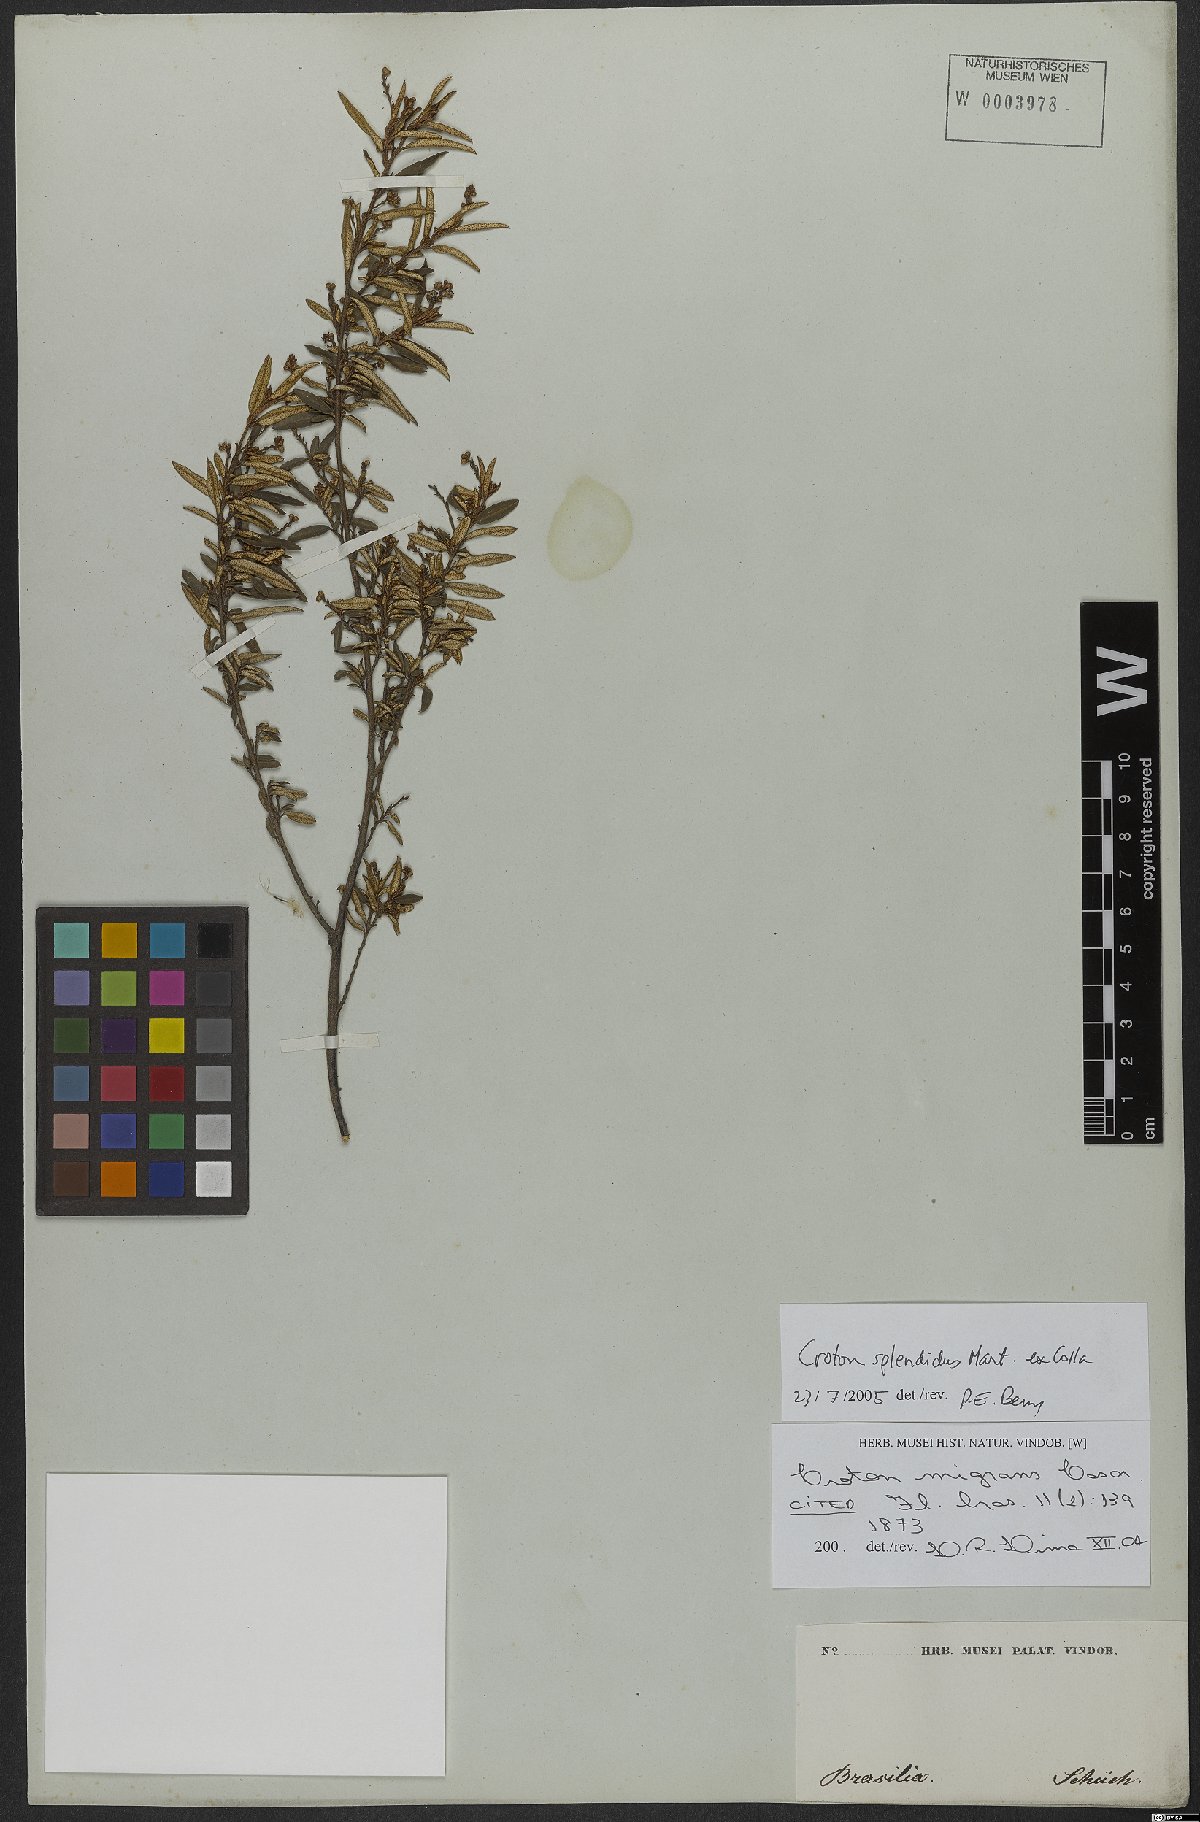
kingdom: Plantae
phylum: Tracheophyta
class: Magnoliopsida
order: Malpighiales
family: Euphorbiaceae
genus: Croton
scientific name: Croton splendidus
